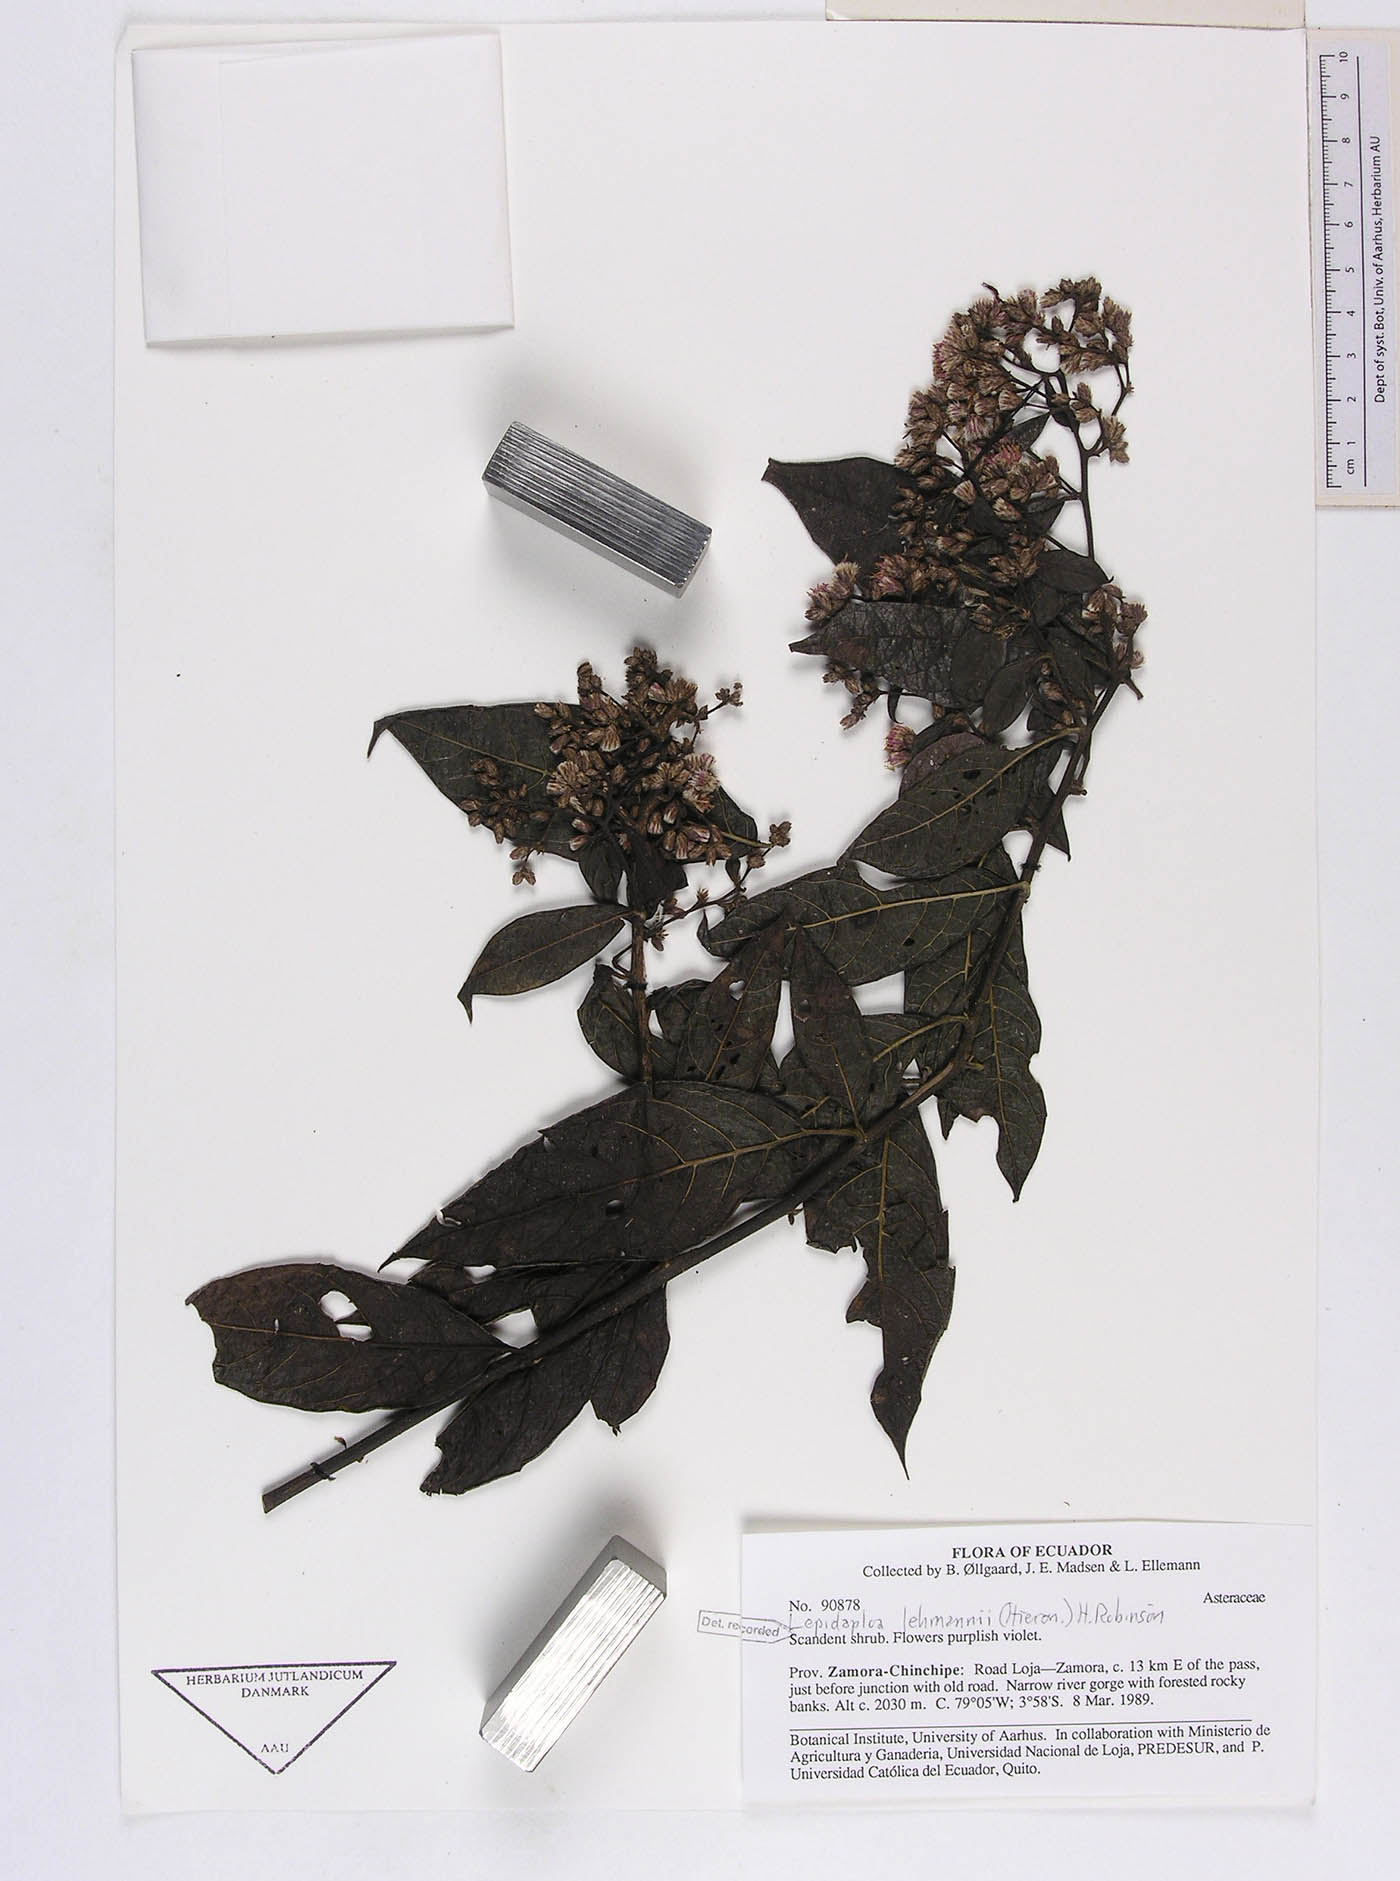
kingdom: Plantae
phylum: Tracheophyta
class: Magnoliopsida
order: Asterales
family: Asteraceae
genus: Lepidaploa
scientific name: Lepidaploa lehmannii
